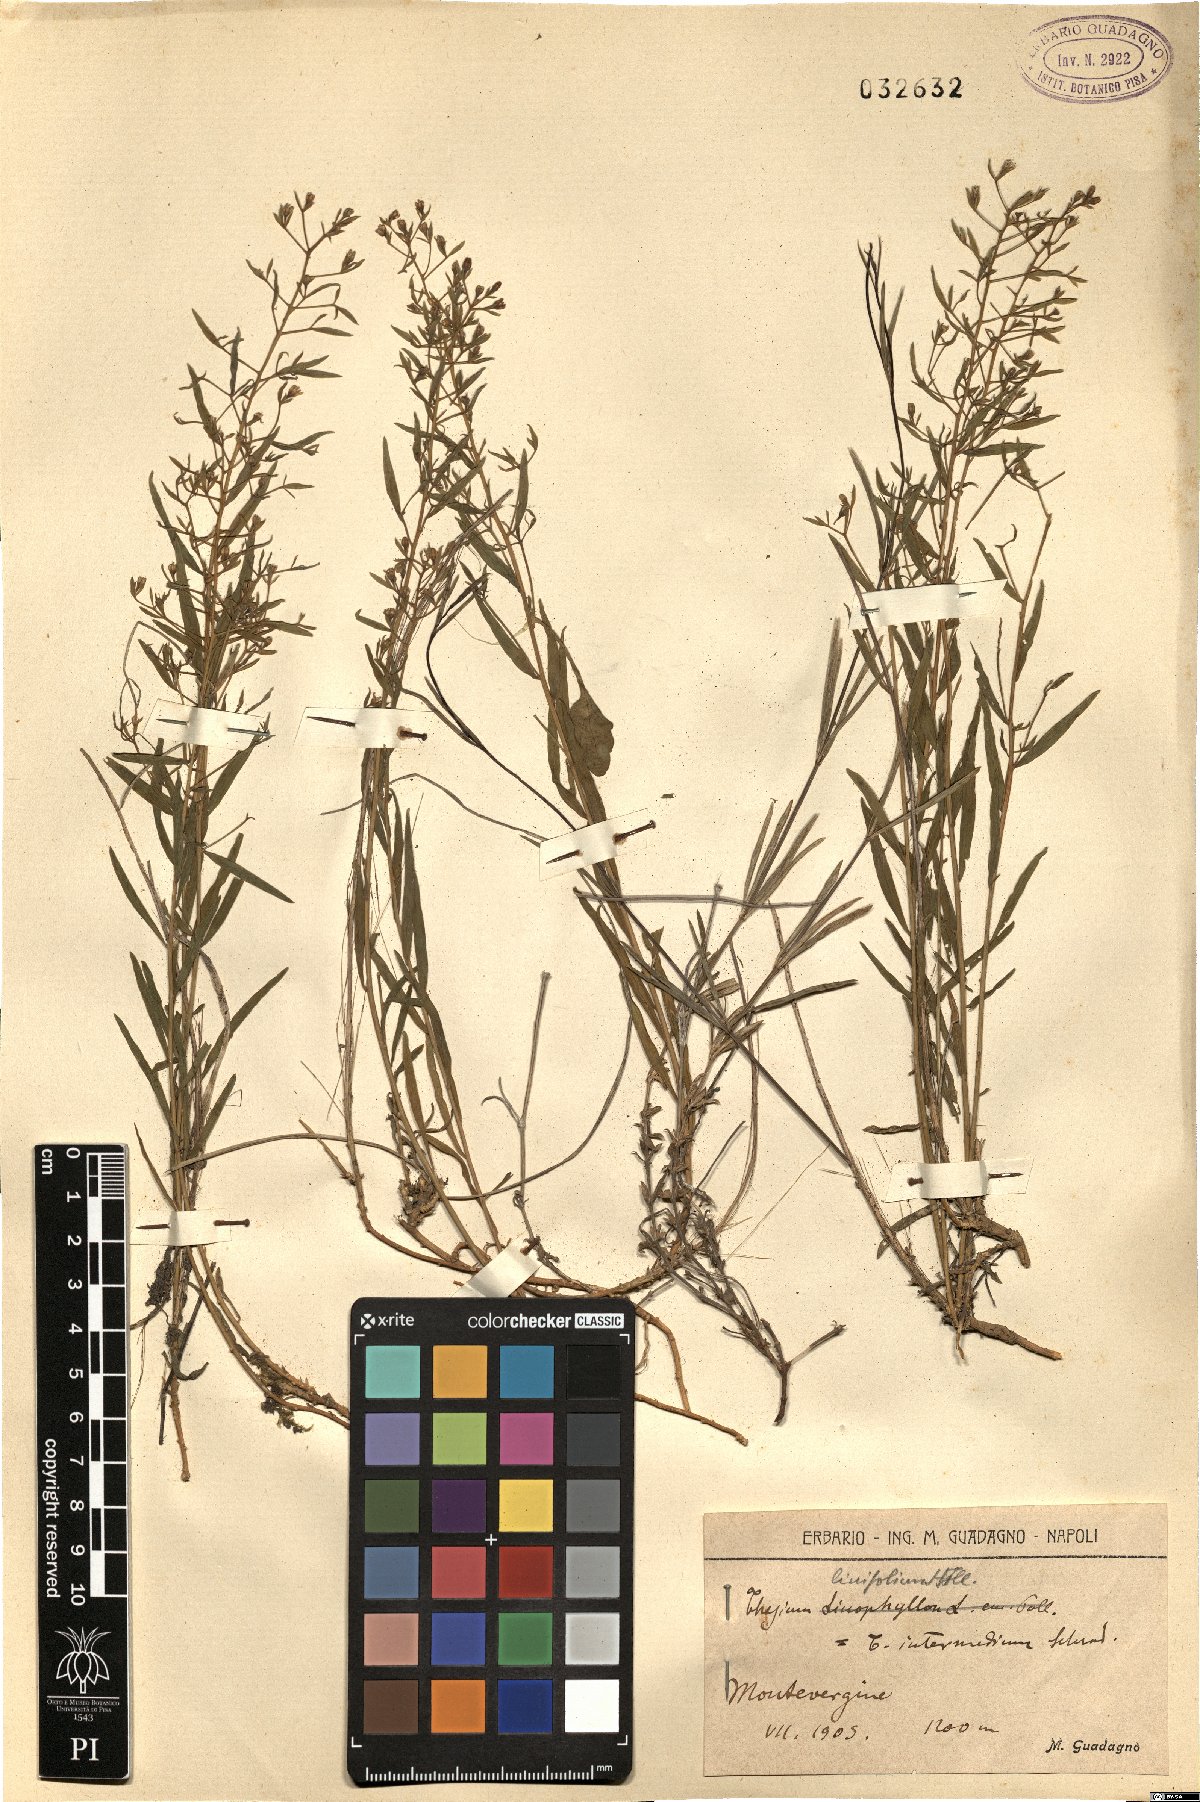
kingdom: Plantae
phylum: Tracheophyta
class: Magnoliopsida
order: Santalales
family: Thesiaceae
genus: Thesium
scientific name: Thesium linophyllon
